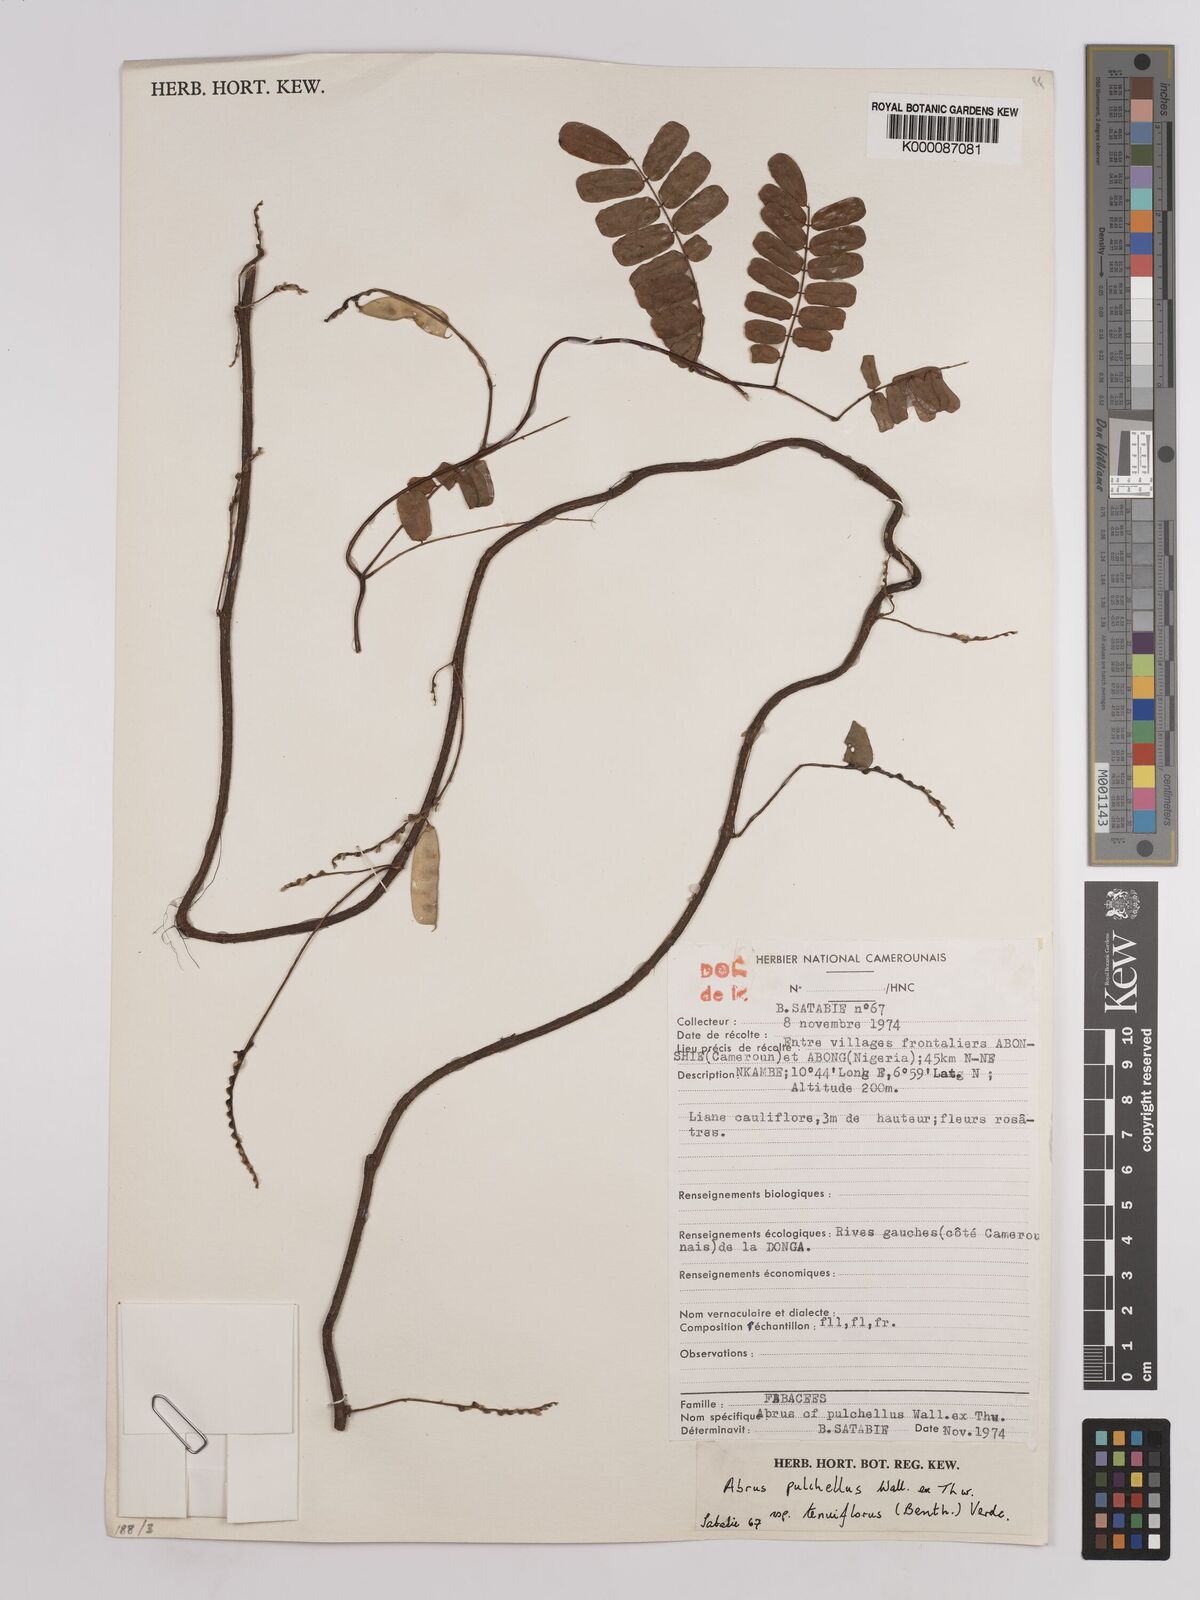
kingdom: Plantae
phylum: Tracheophyta
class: Magnoliopsida
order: Fabales
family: Fabaceae
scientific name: Fabaceae
